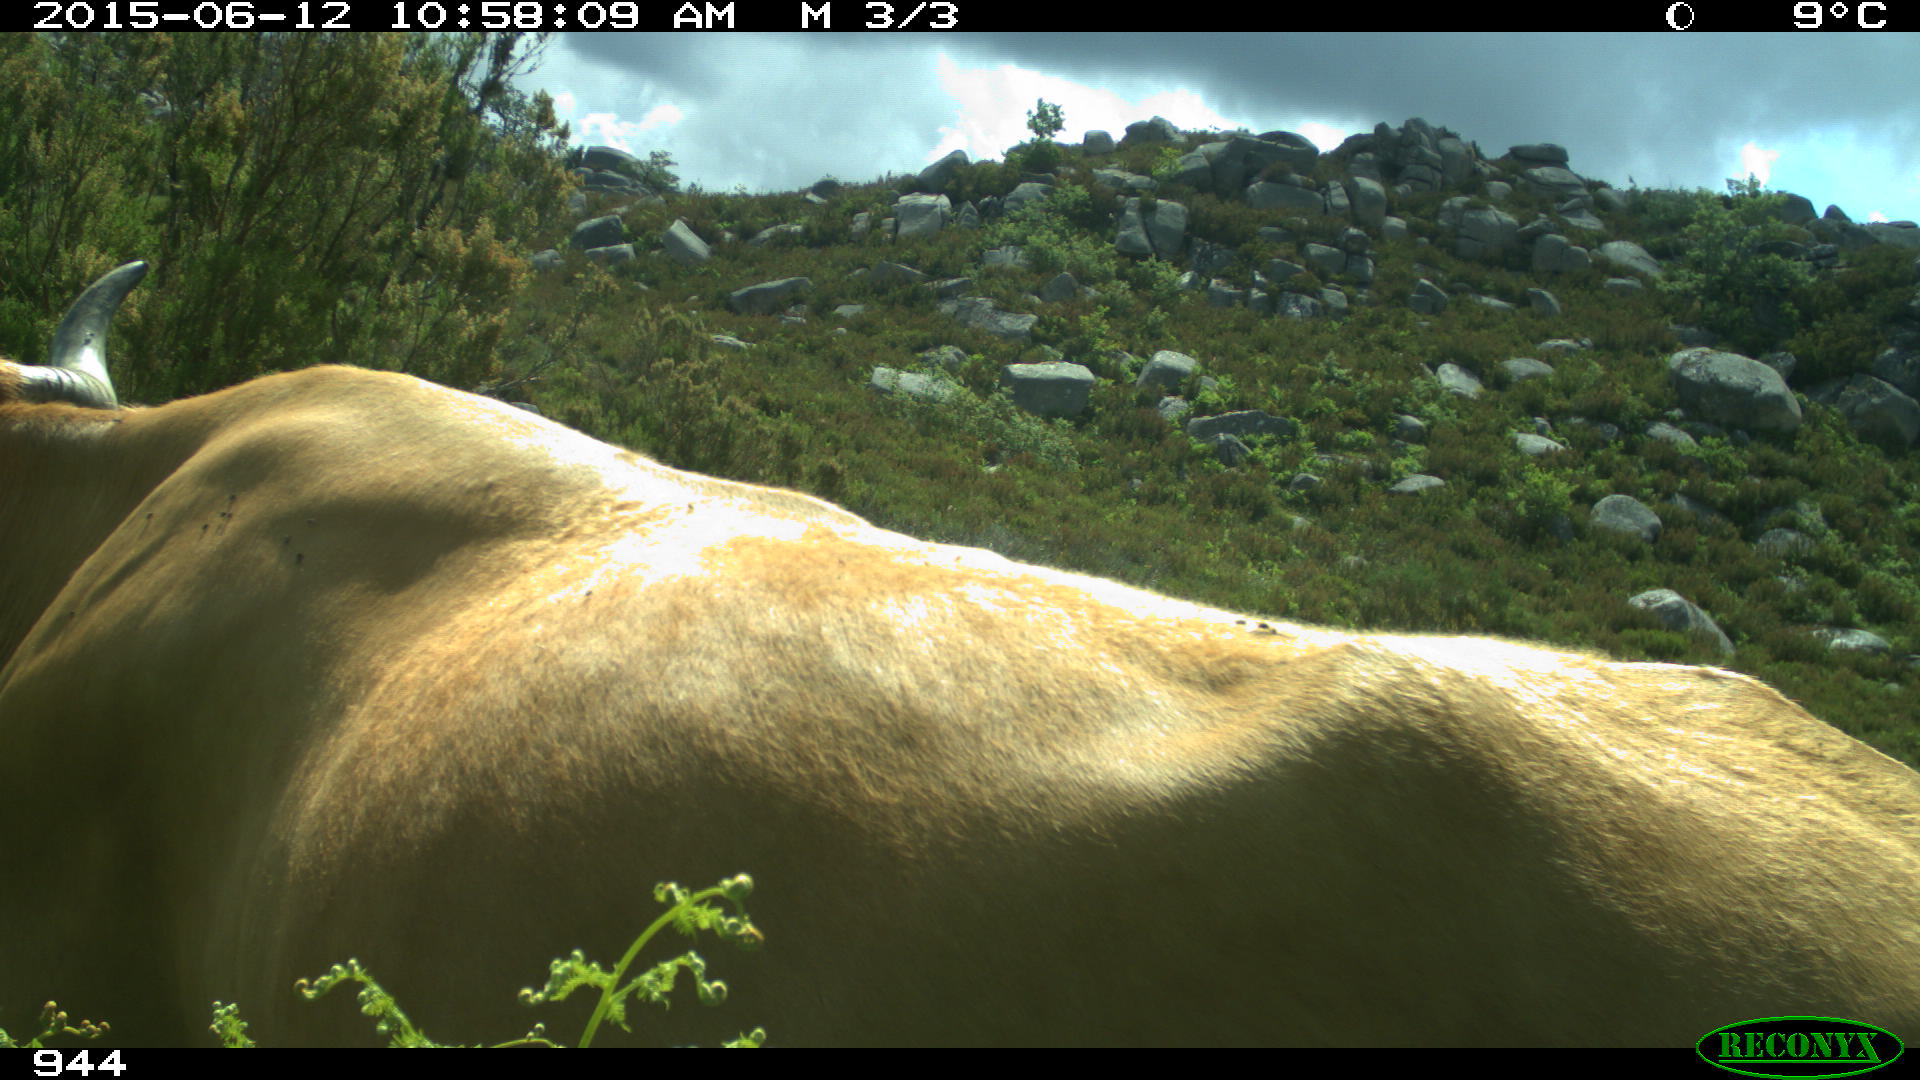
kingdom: Animalia
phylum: Chordata
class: Mammalia
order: Artiodactyla
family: Bovidae
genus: Bos
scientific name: Bos taurus
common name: Domesticated cattle
